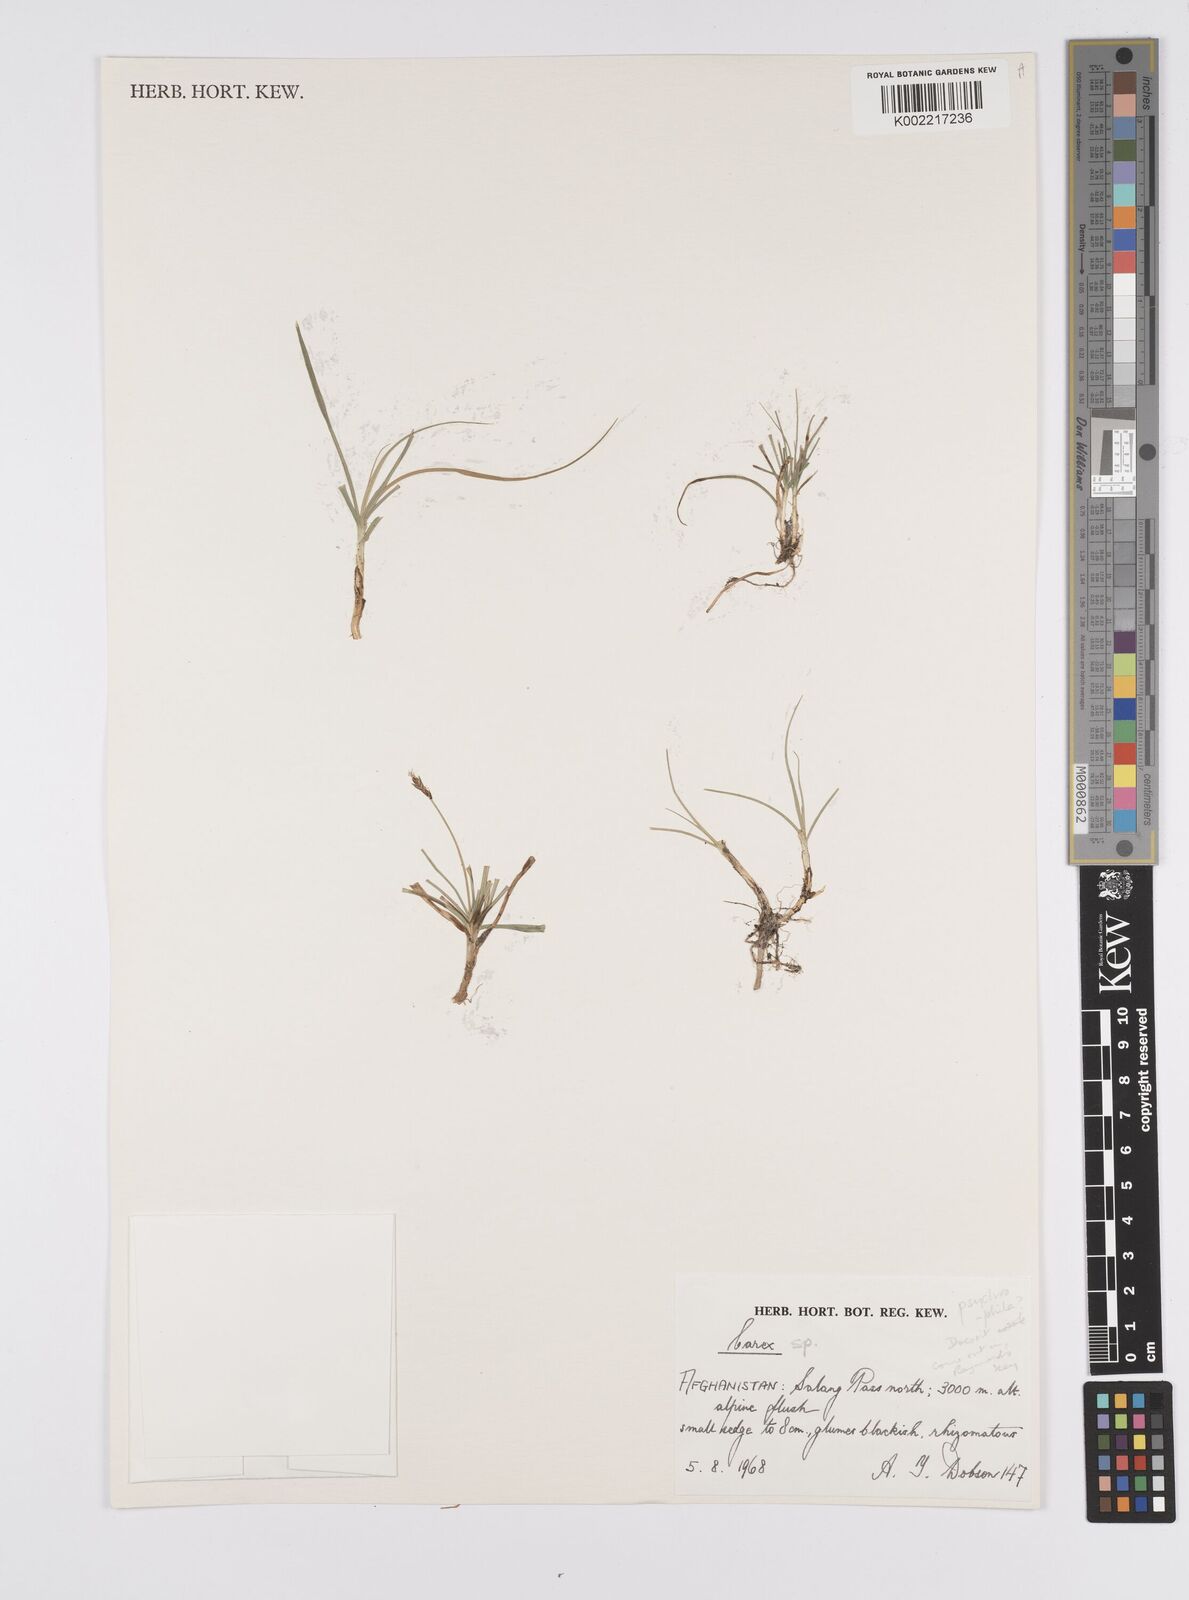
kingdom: Plantae
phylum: Tracheophyta
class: Liliopsida
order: Poales
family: Cyperaceae
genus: Carex
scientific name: Carex
